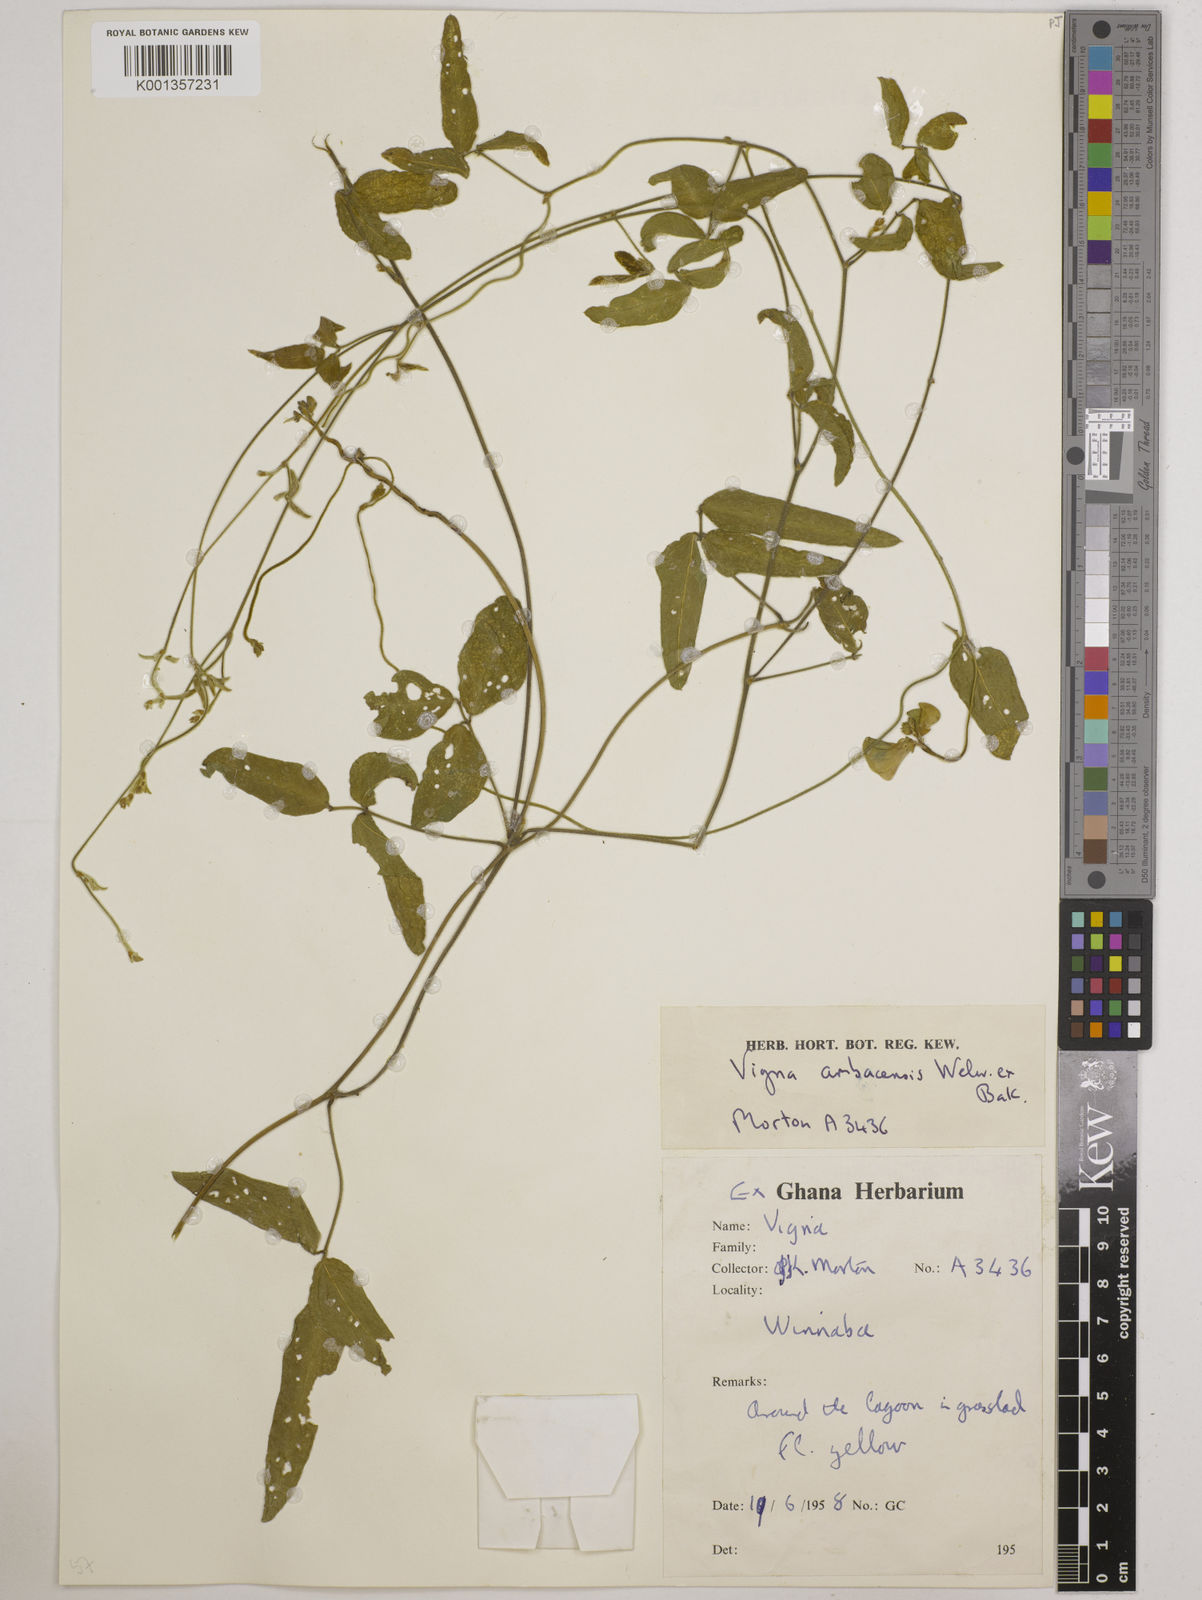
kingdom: Plantae
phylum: Tracheophyta
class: Magnoliopsida
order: Fabales
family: Fabaceae
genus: Vigna
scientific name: Vigna ambacensis
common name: Tsarkiyan zomo
